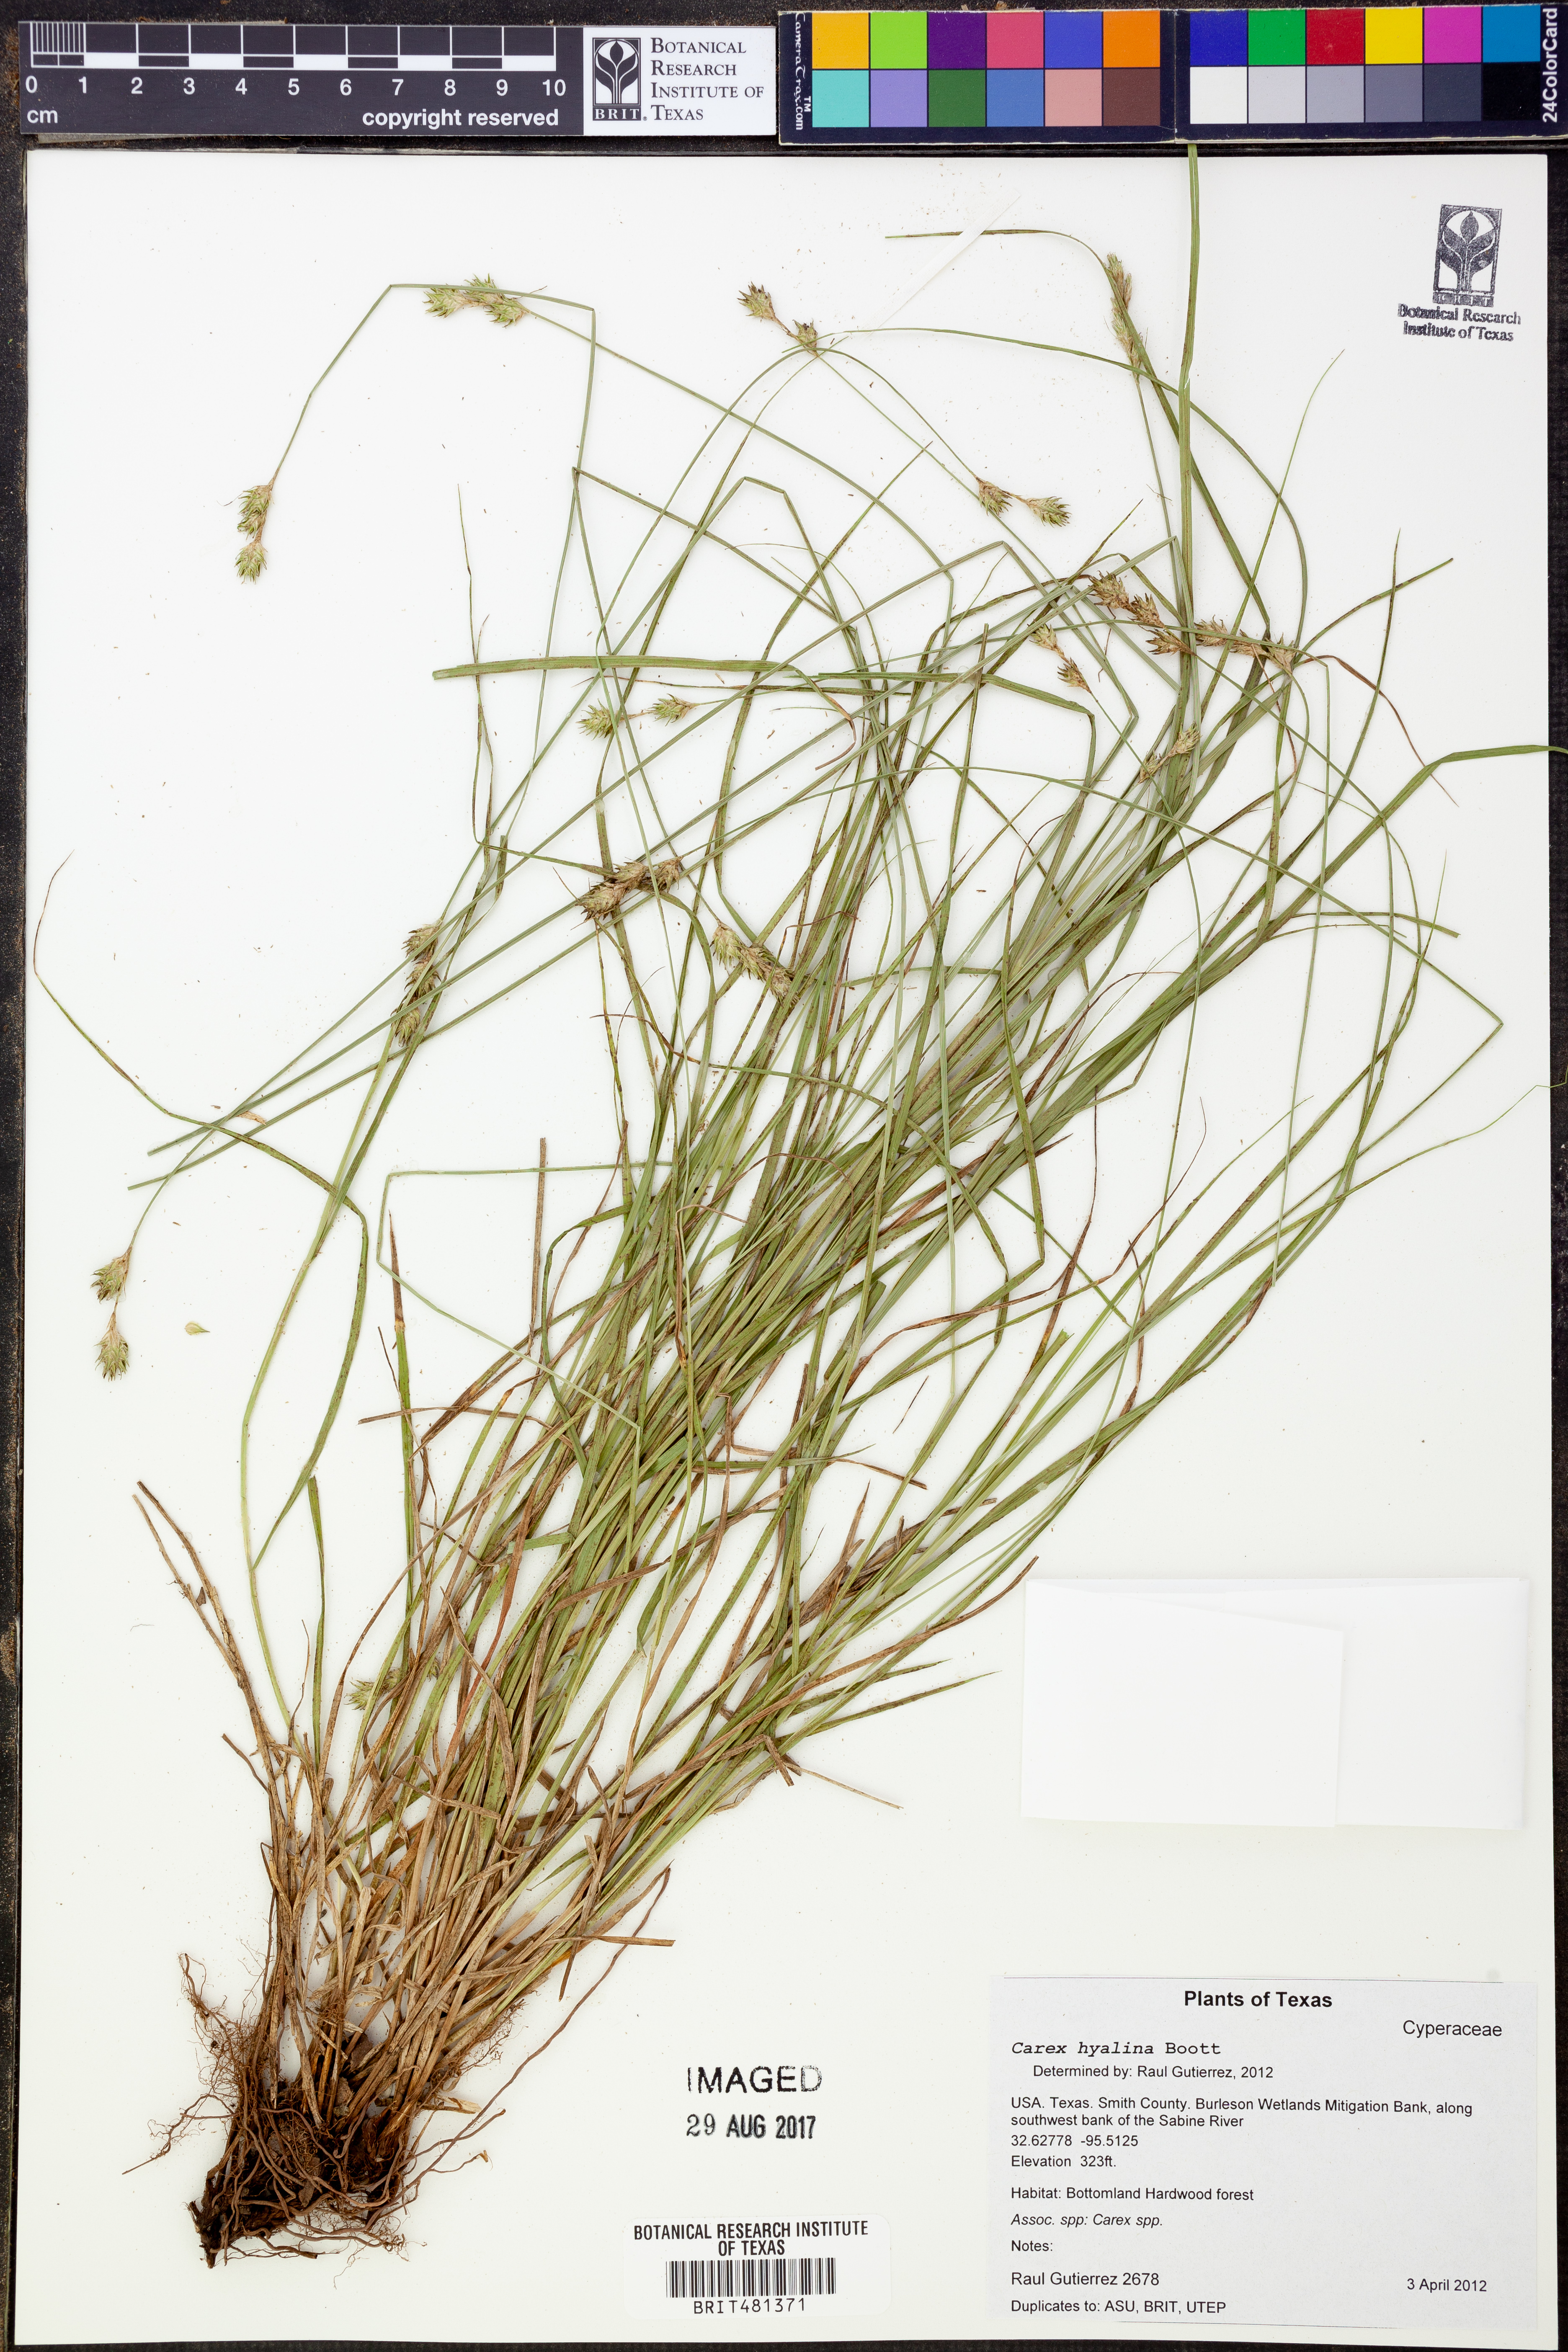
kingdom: Plantae
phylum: Tracheophyta
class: Liliopsida
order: Poales
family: Cyperaceae
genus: Carex
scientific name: Carex hyalina
